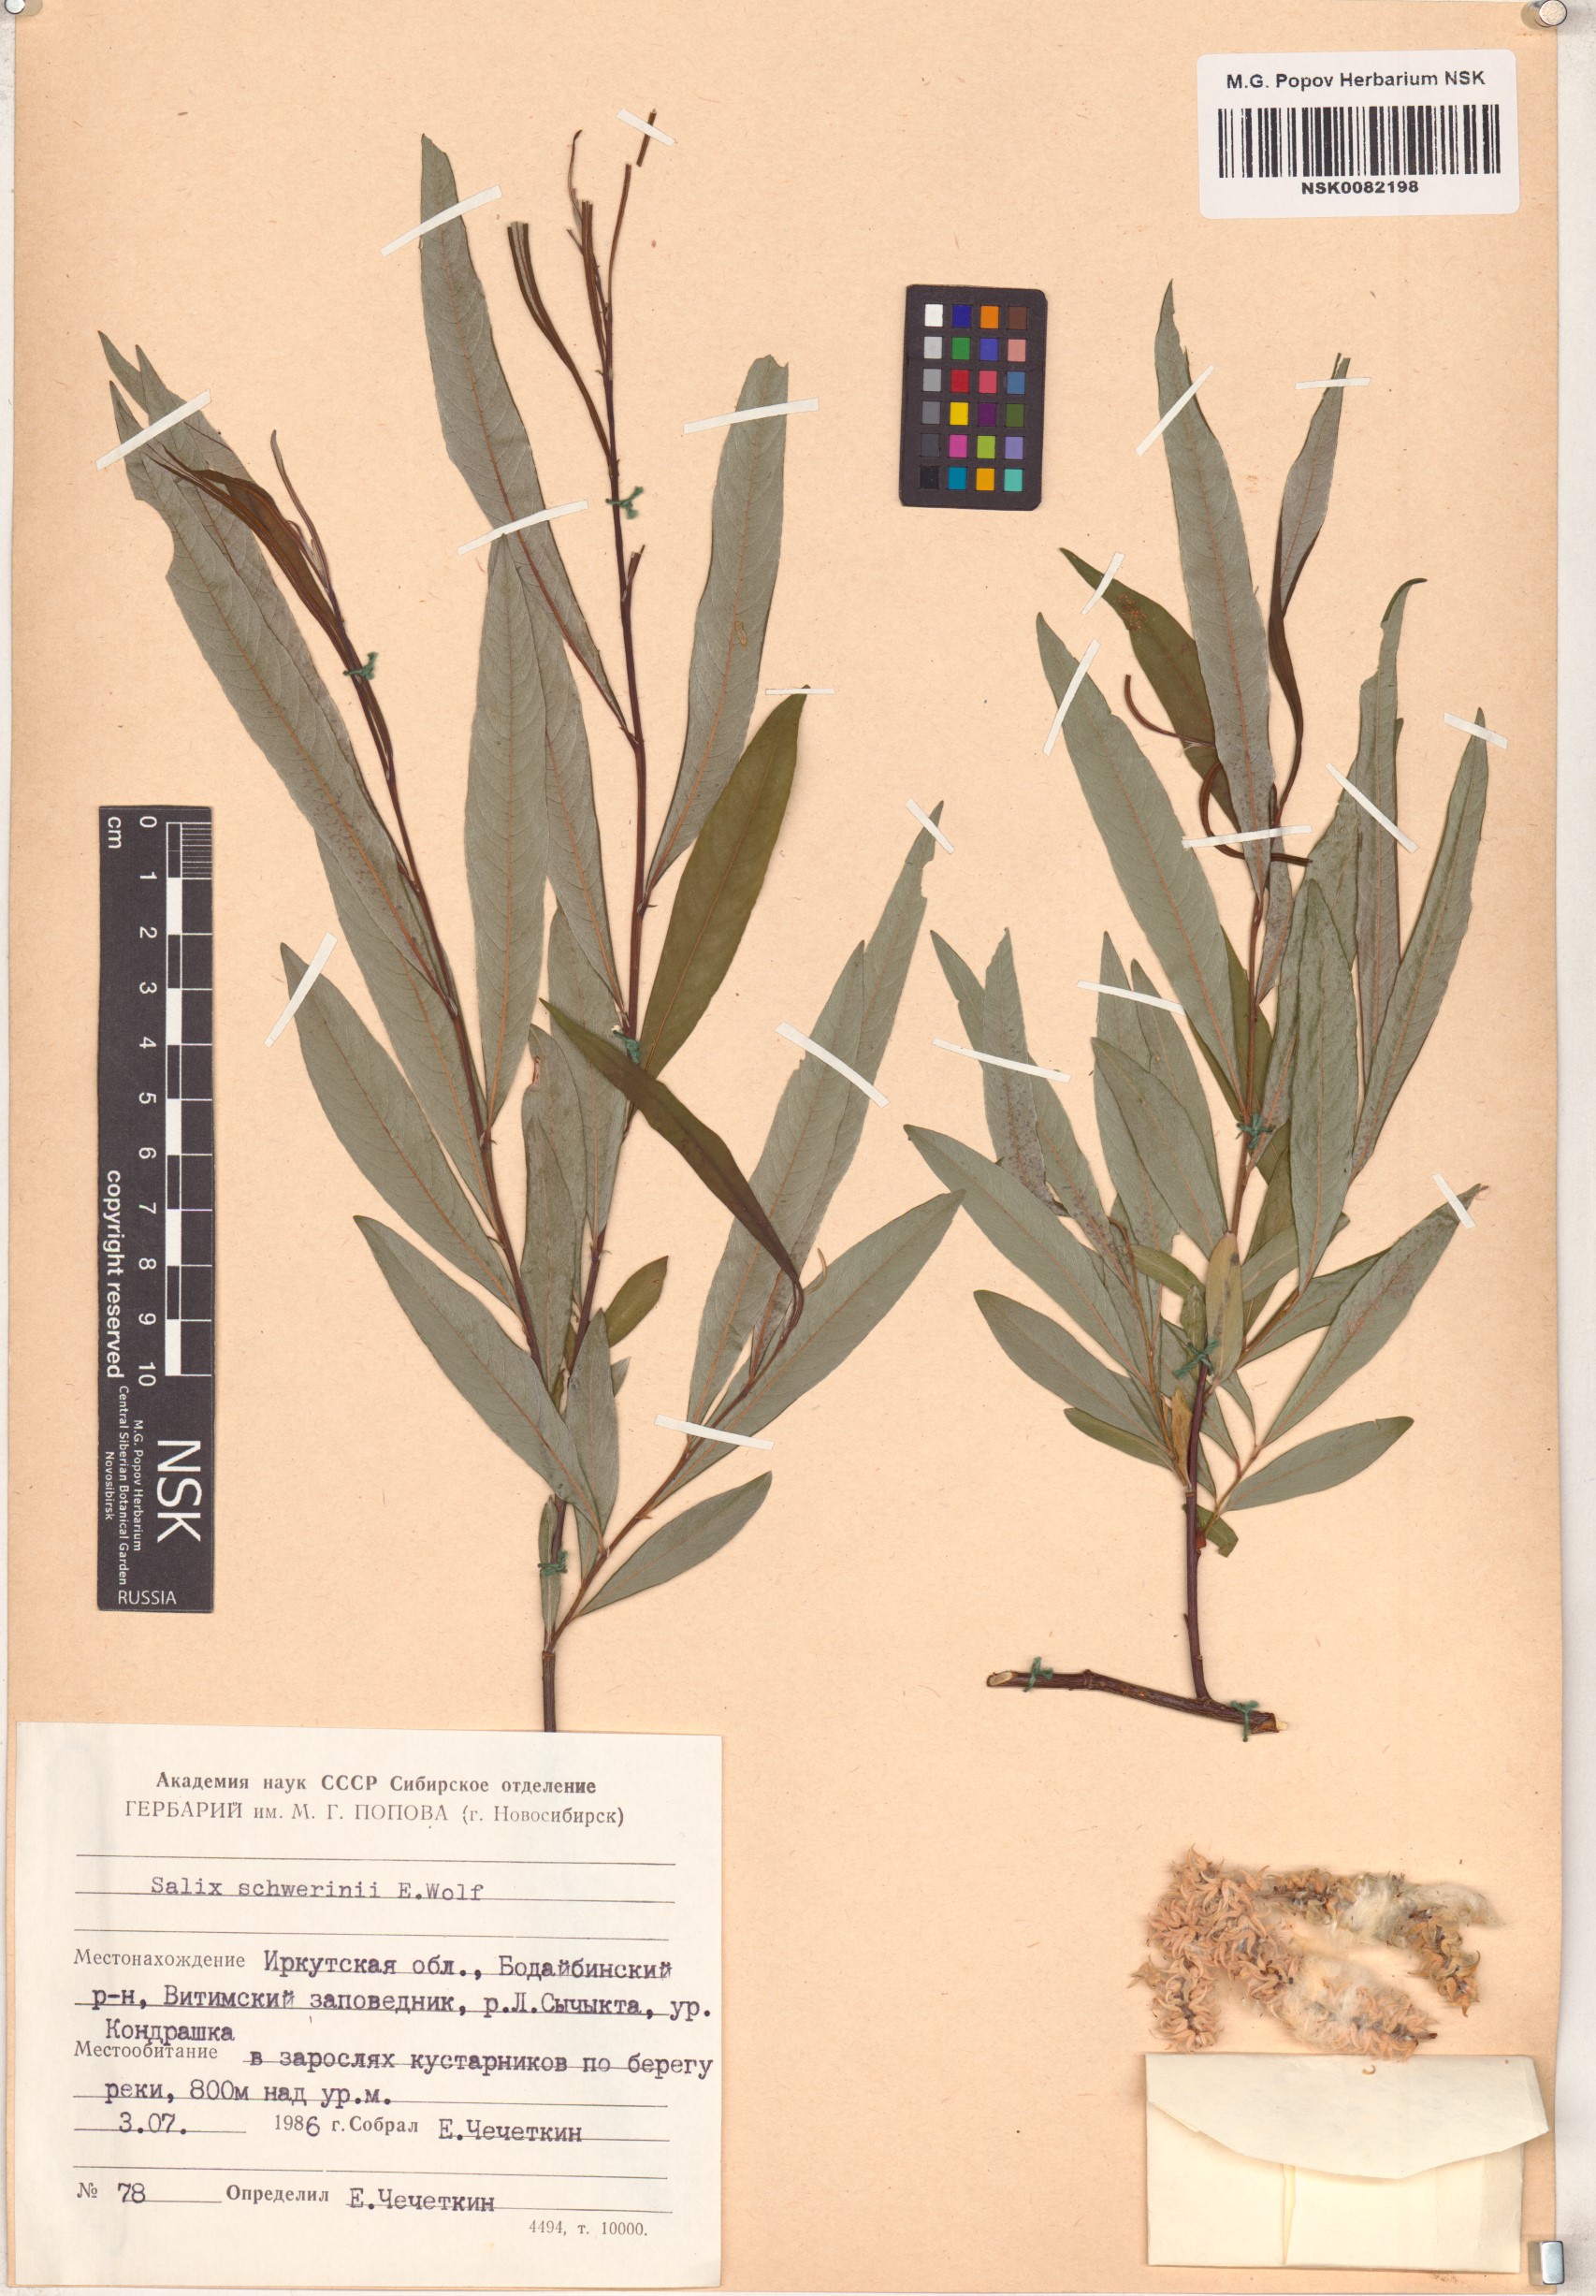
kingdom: Plantae
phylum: Tracheophyta
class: Magnoliopsida
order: Malpighiales
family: Salicaceae
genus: Salix
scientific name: Salix schwerinii
